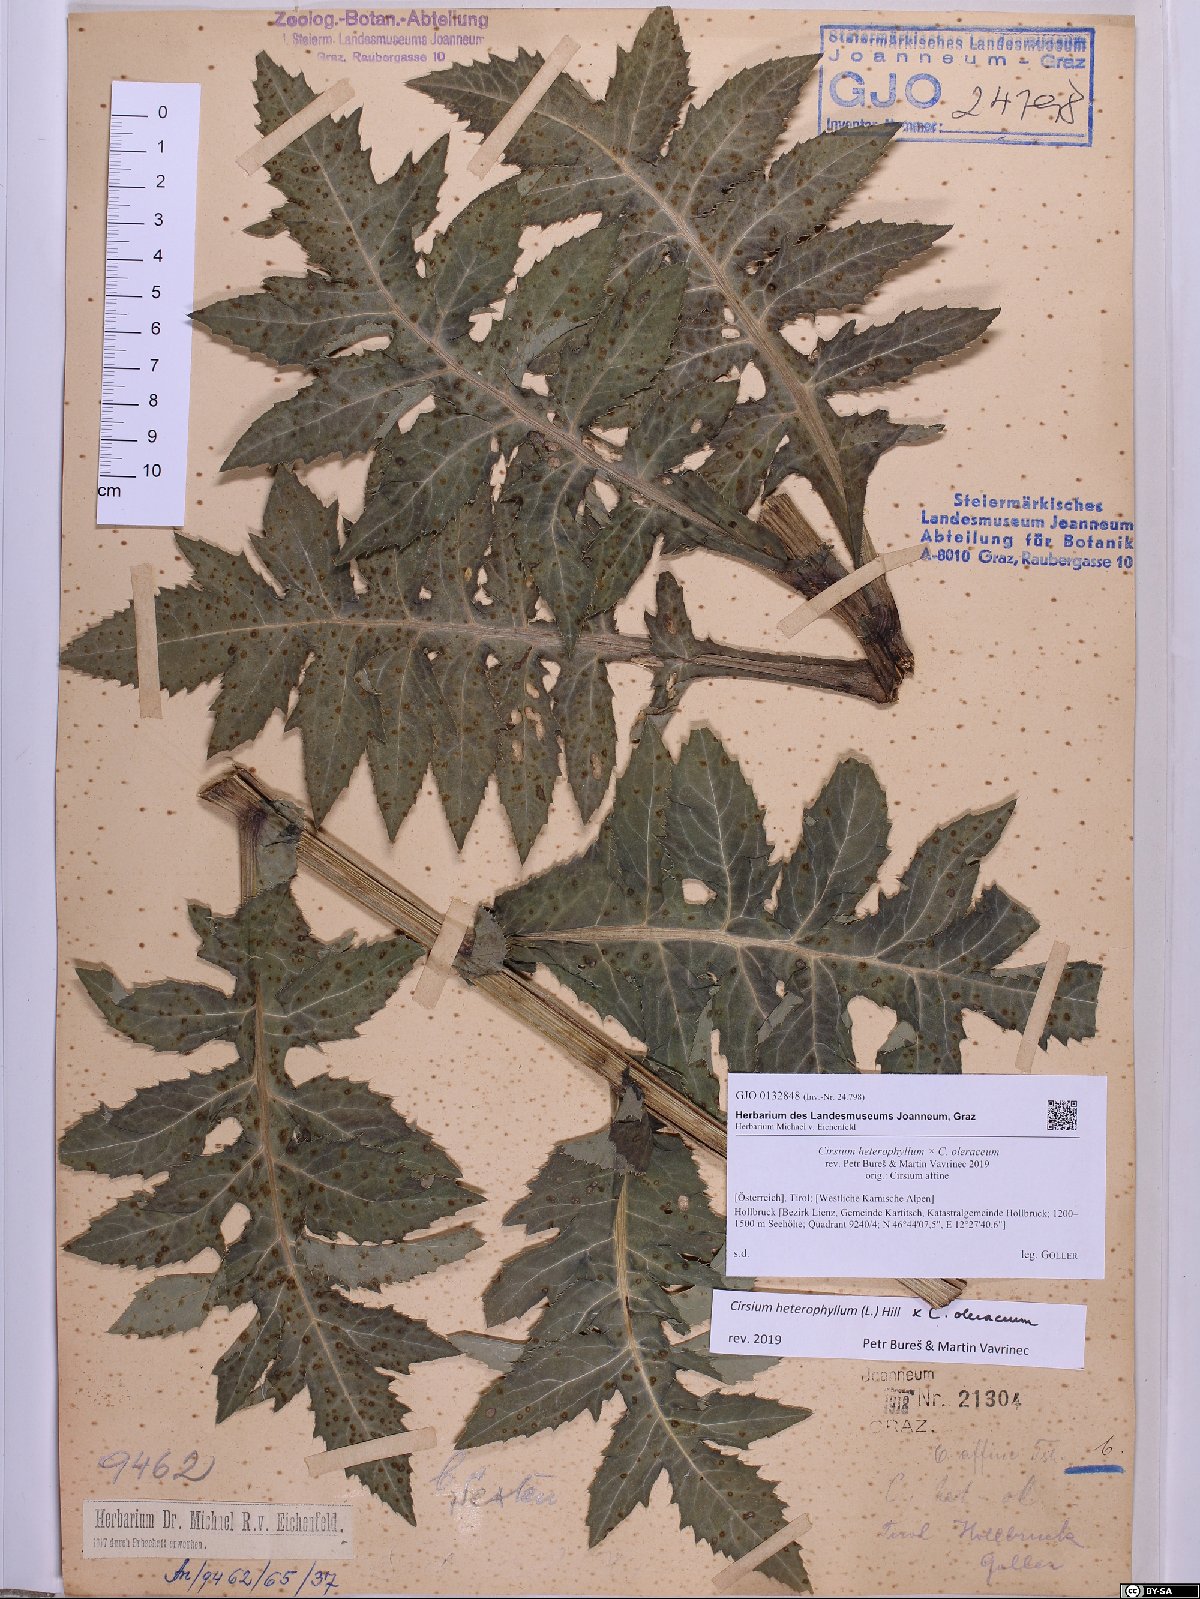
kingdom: Plantae
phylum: Tracheophyta
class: Magnoliopsida
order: Asterales
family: Asteraceae
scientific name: Asteraceae
